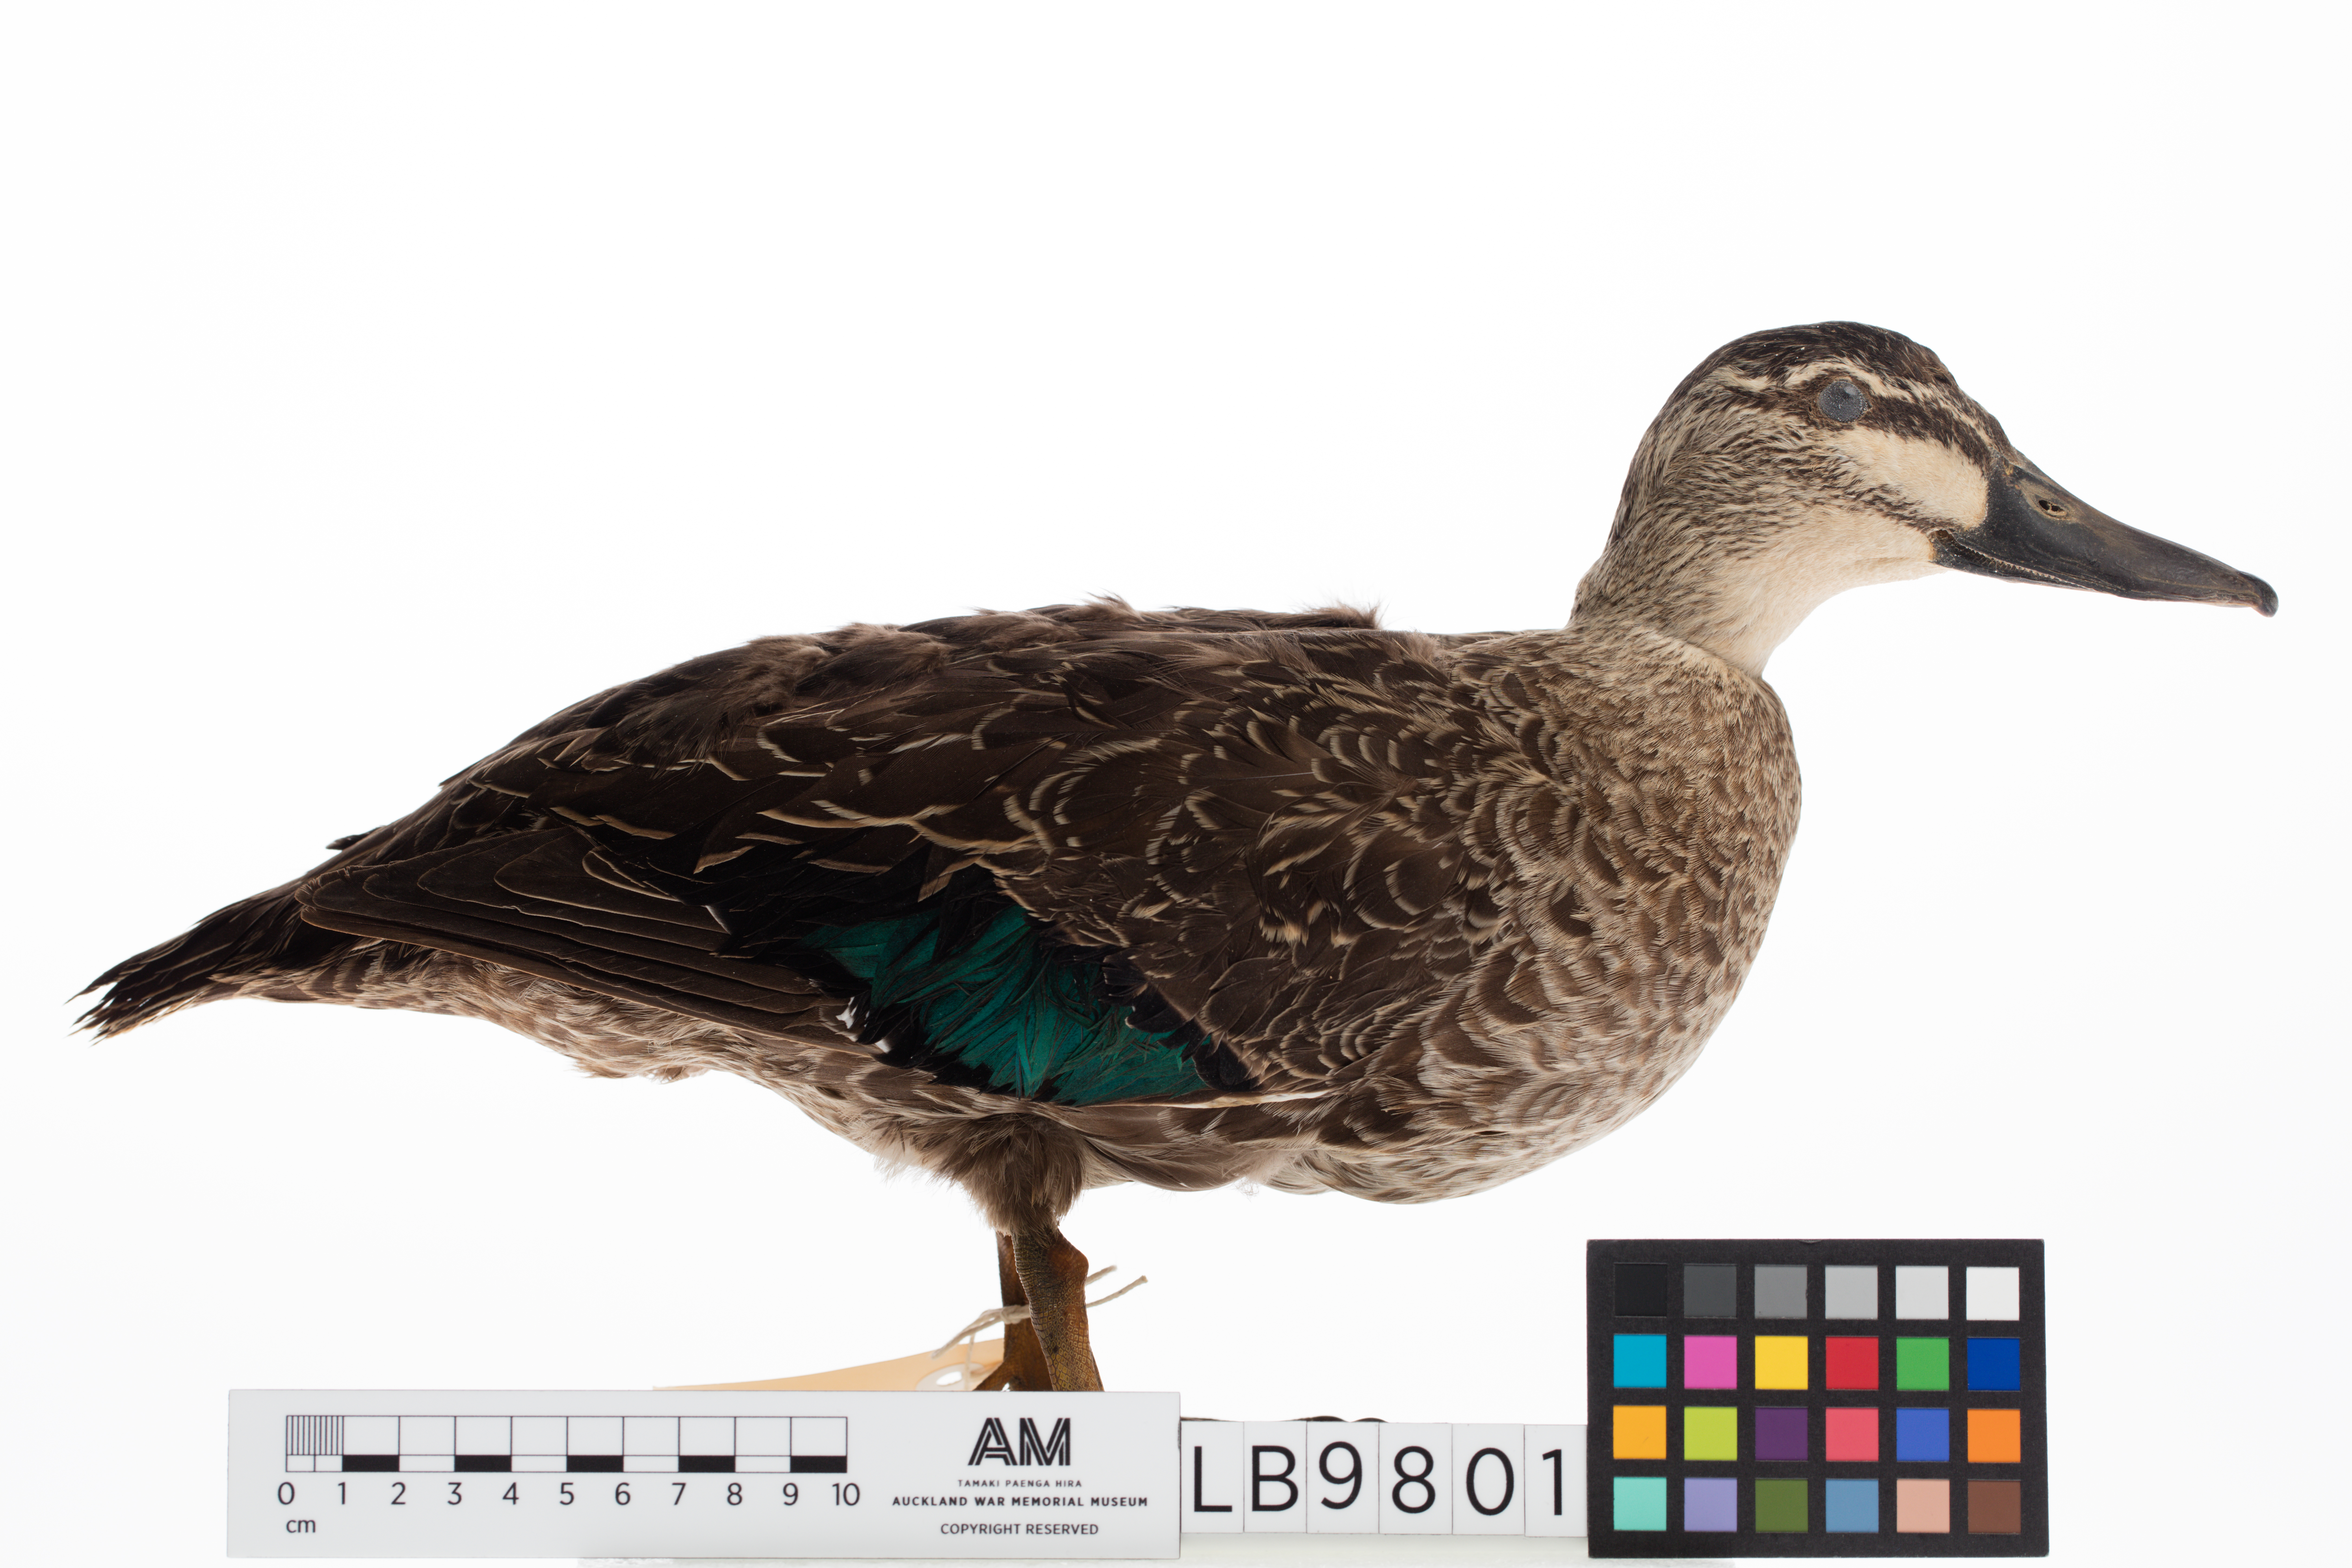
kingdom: Animalia
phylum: Chordata
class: Aves
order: Anseriformes
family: Anatidae
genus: Anas
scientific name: Anas superciliosa
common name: Pacific black duck
